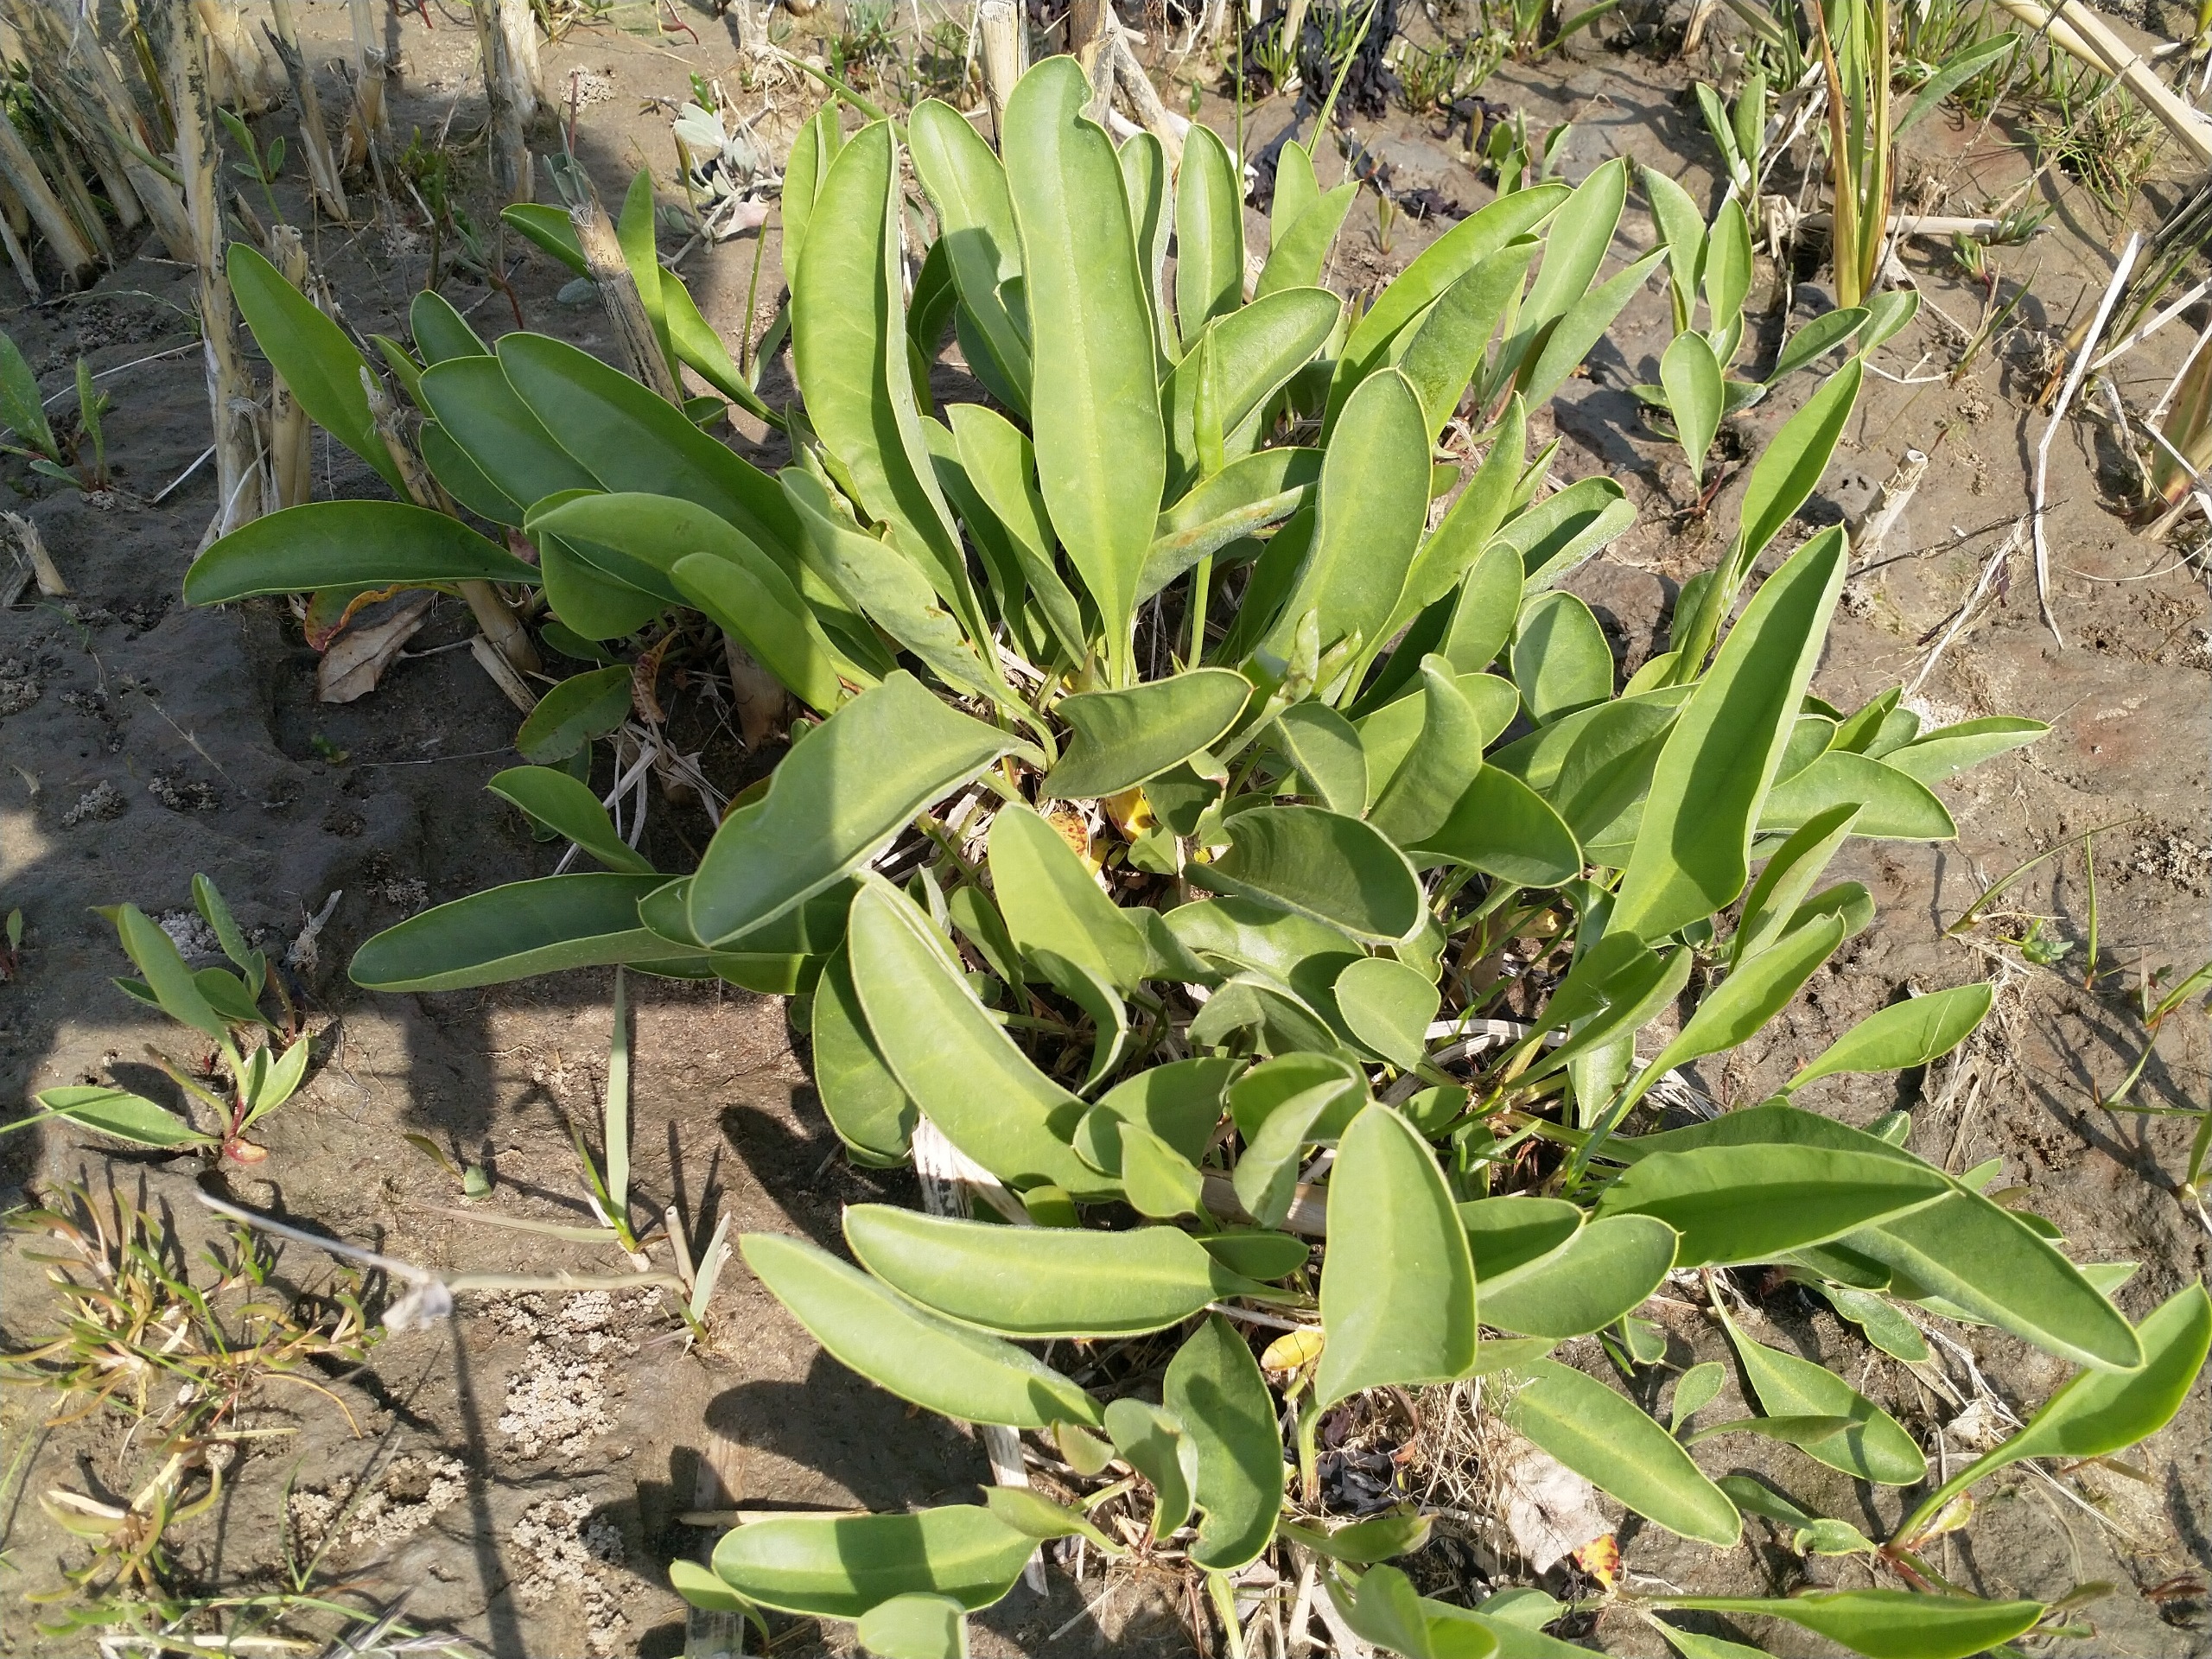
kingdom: Plantae
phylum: Tracheophyta
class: Magnoliopsida
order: Caryophyllales
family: Plumbaginaceae
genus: Limonium
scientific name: Limonium vulgare
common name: Tætblomstret hindebæger
